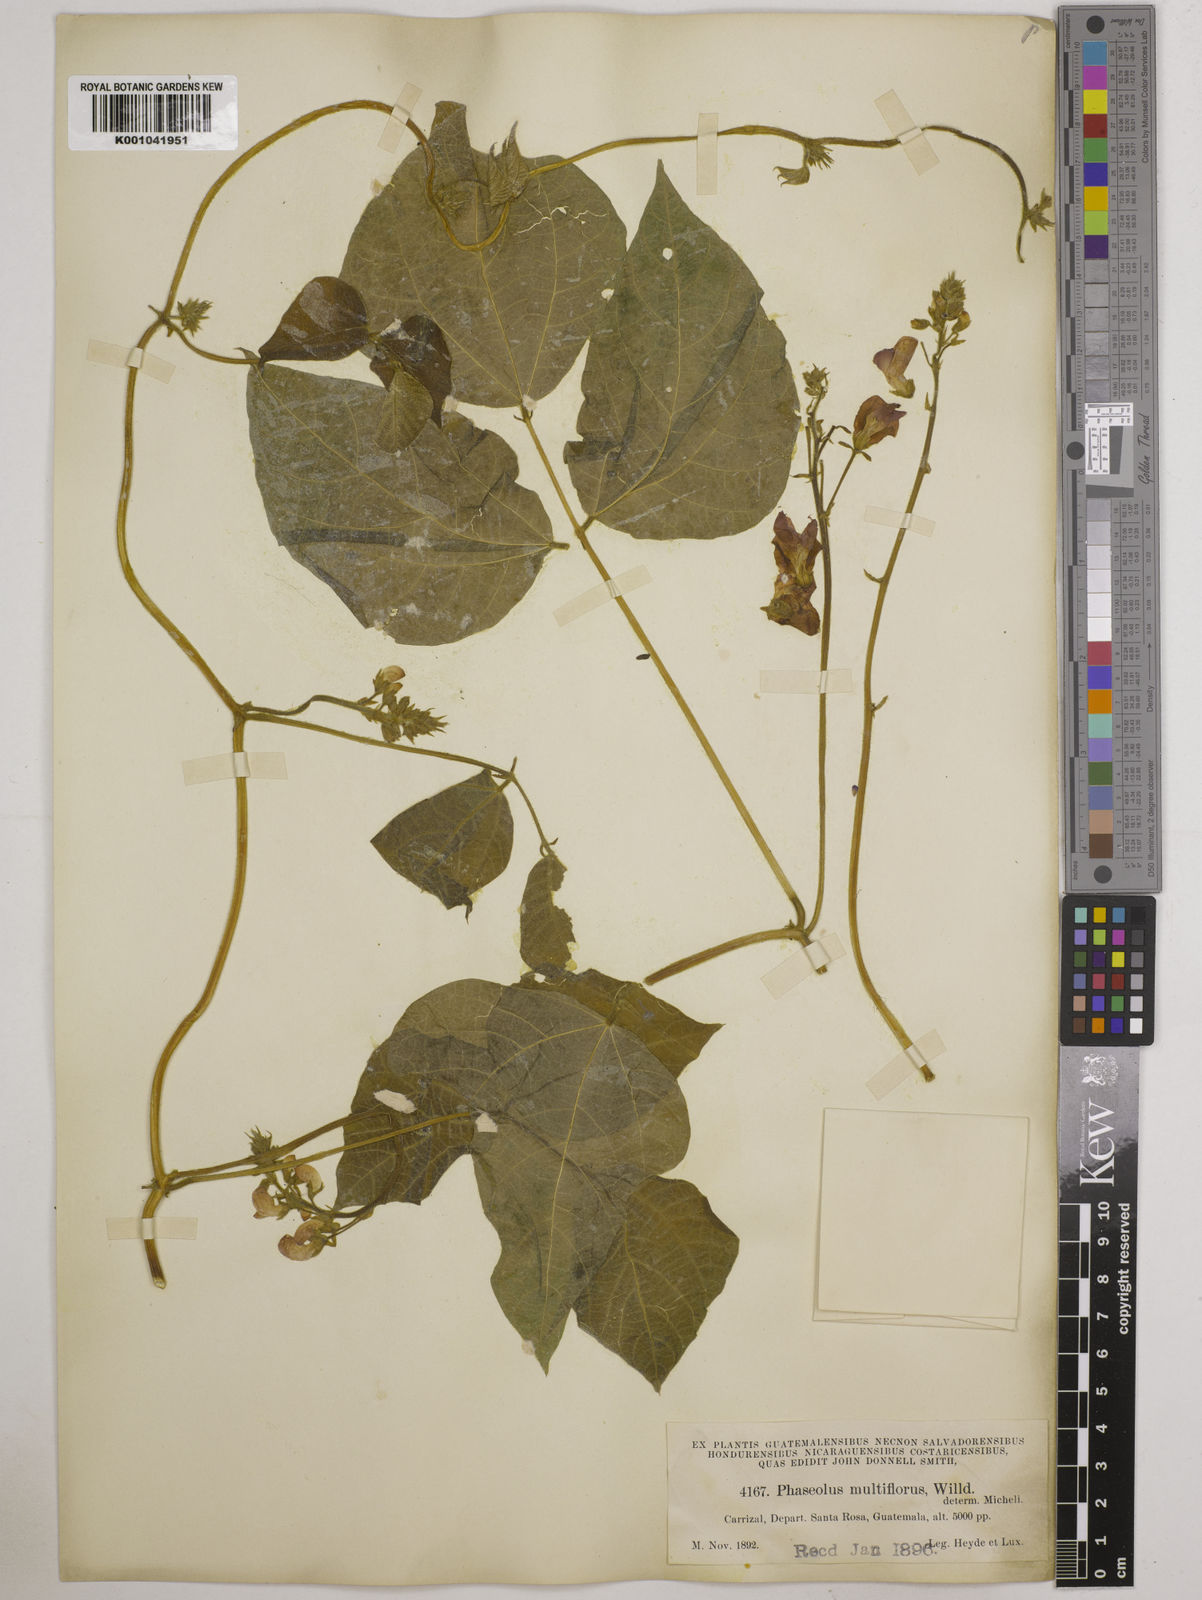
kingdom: Plantae
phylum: Tracheophyta
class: Magnoliopsida
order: Fabales
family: Fabaceae
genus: Phaseolus
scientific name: Phaseolus coccineus
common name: Runner bean
